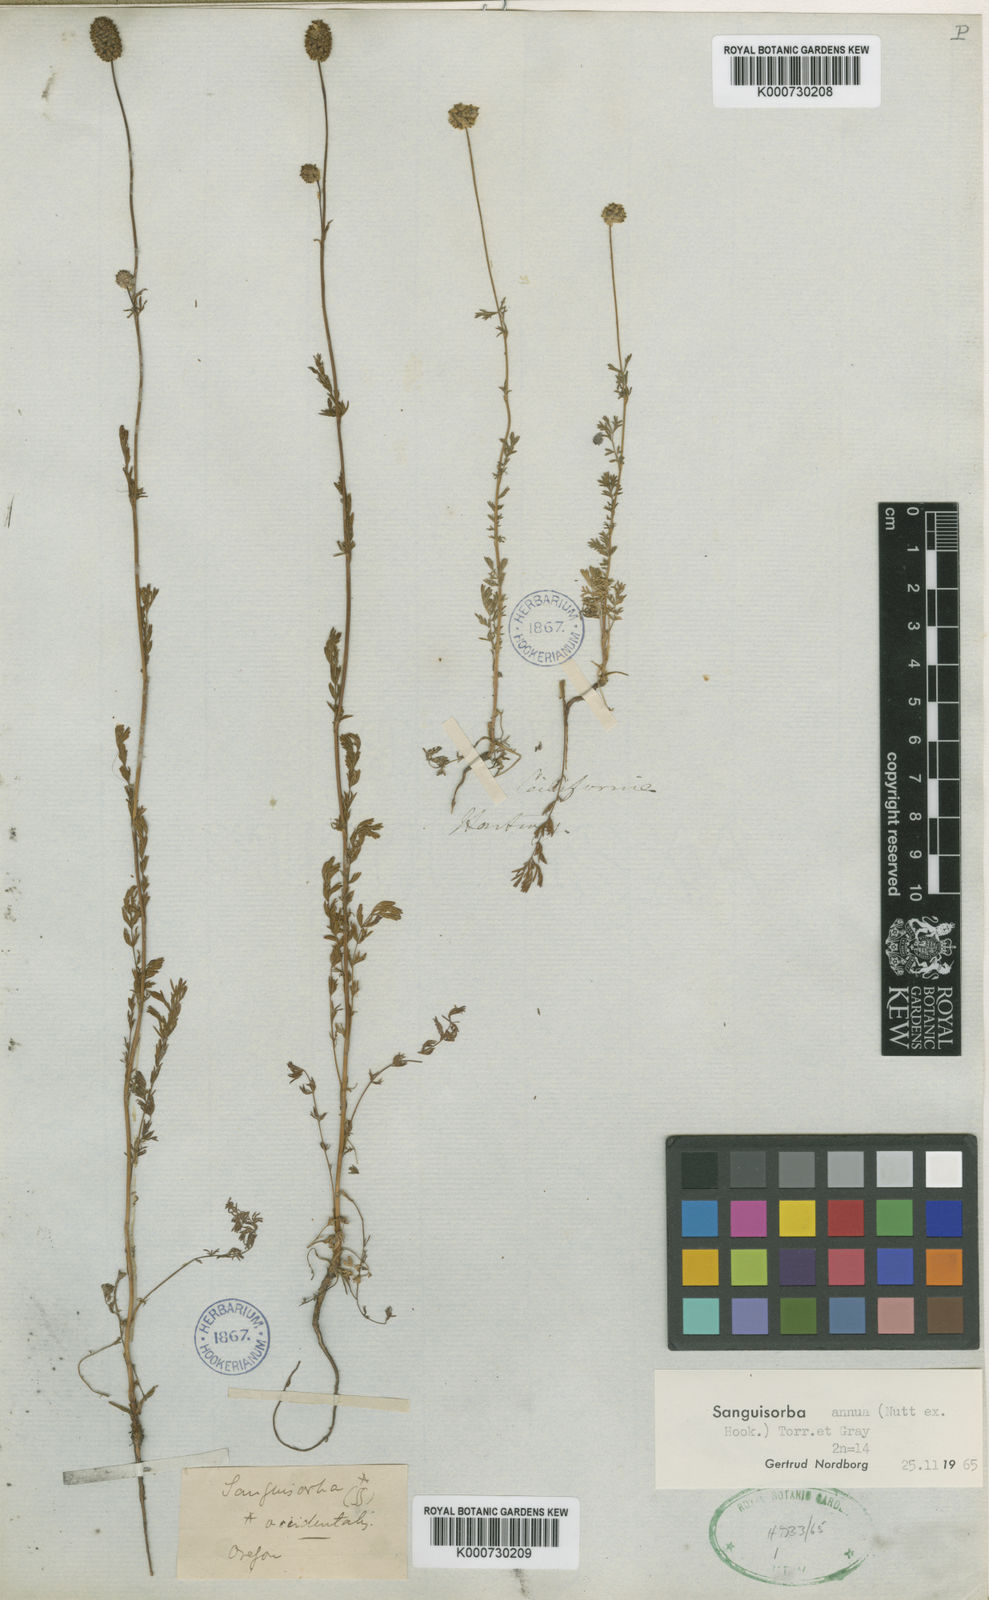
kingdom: Plantae
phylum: Tracheophyta
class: Magnoliopsida
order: Rosales
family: Rosaceae
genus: Sanguisorba
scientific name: Sanguisorba
